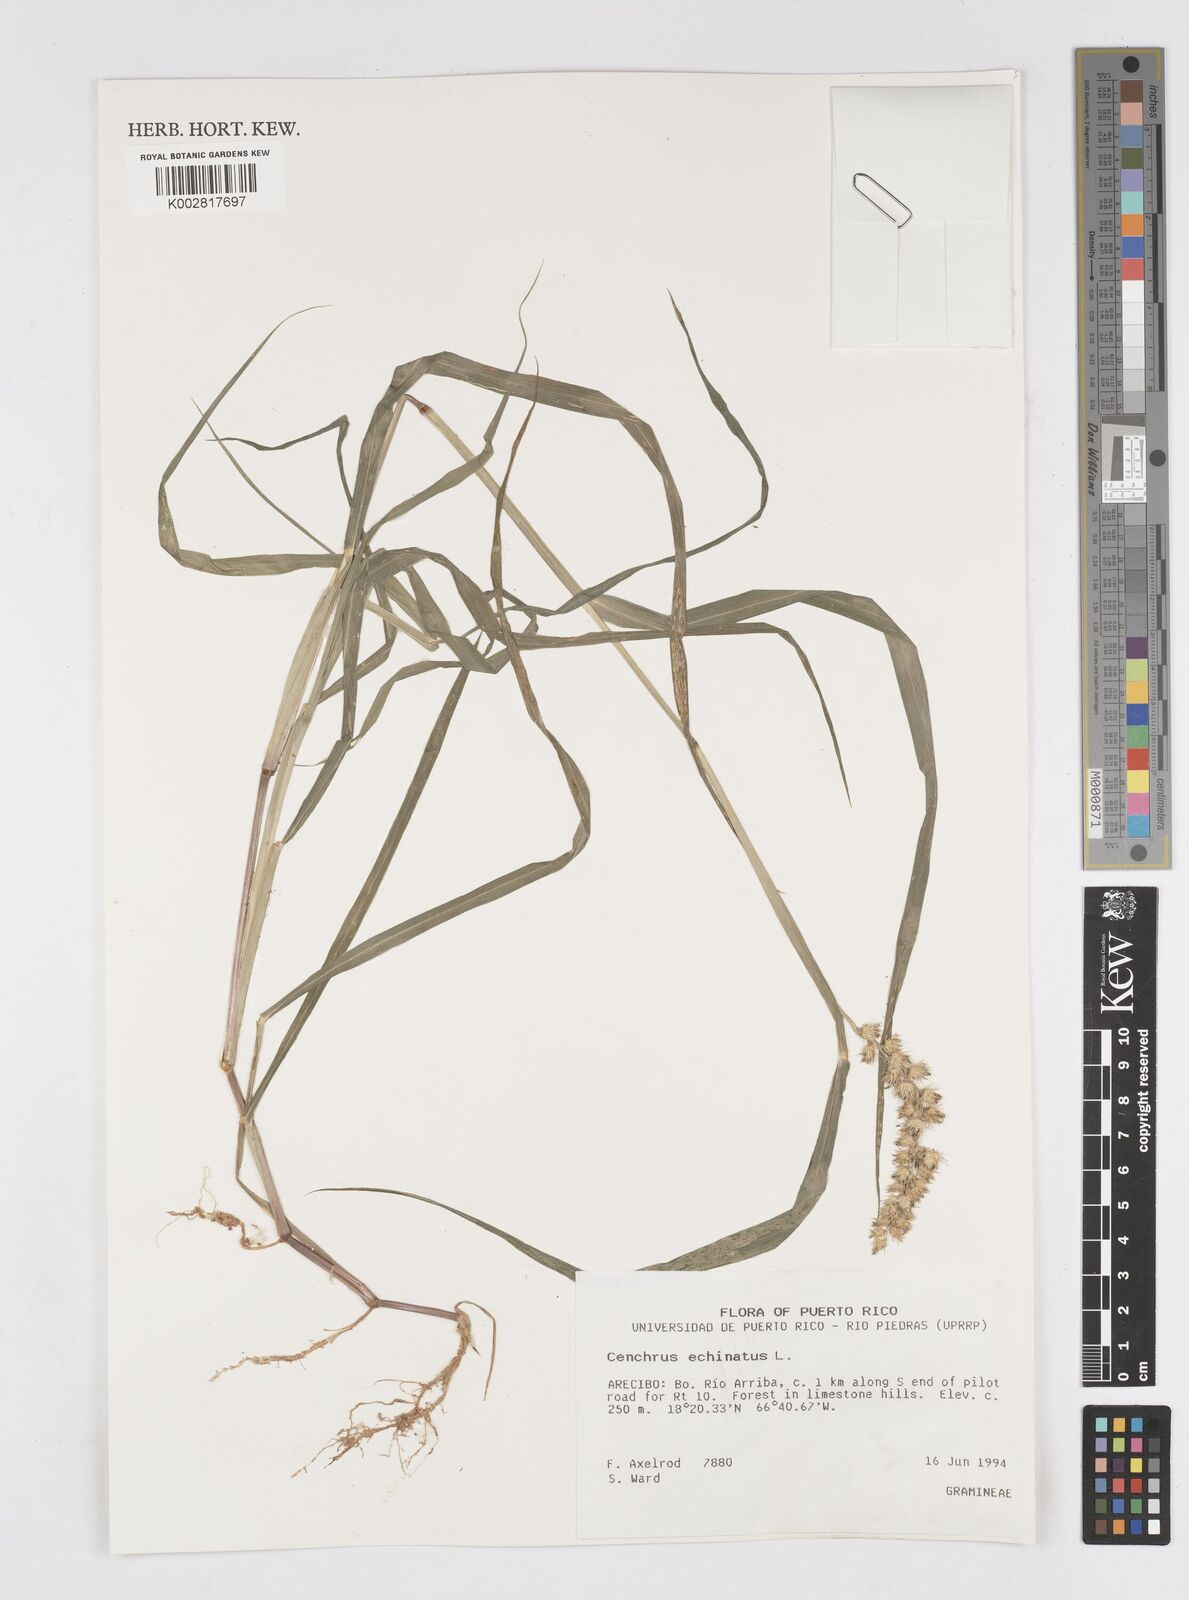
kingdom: Plantae
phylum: Tracheophyta
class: Liliopsida
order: Poales
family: Poaceae
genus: Cenchrus
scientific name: Cenchrus
